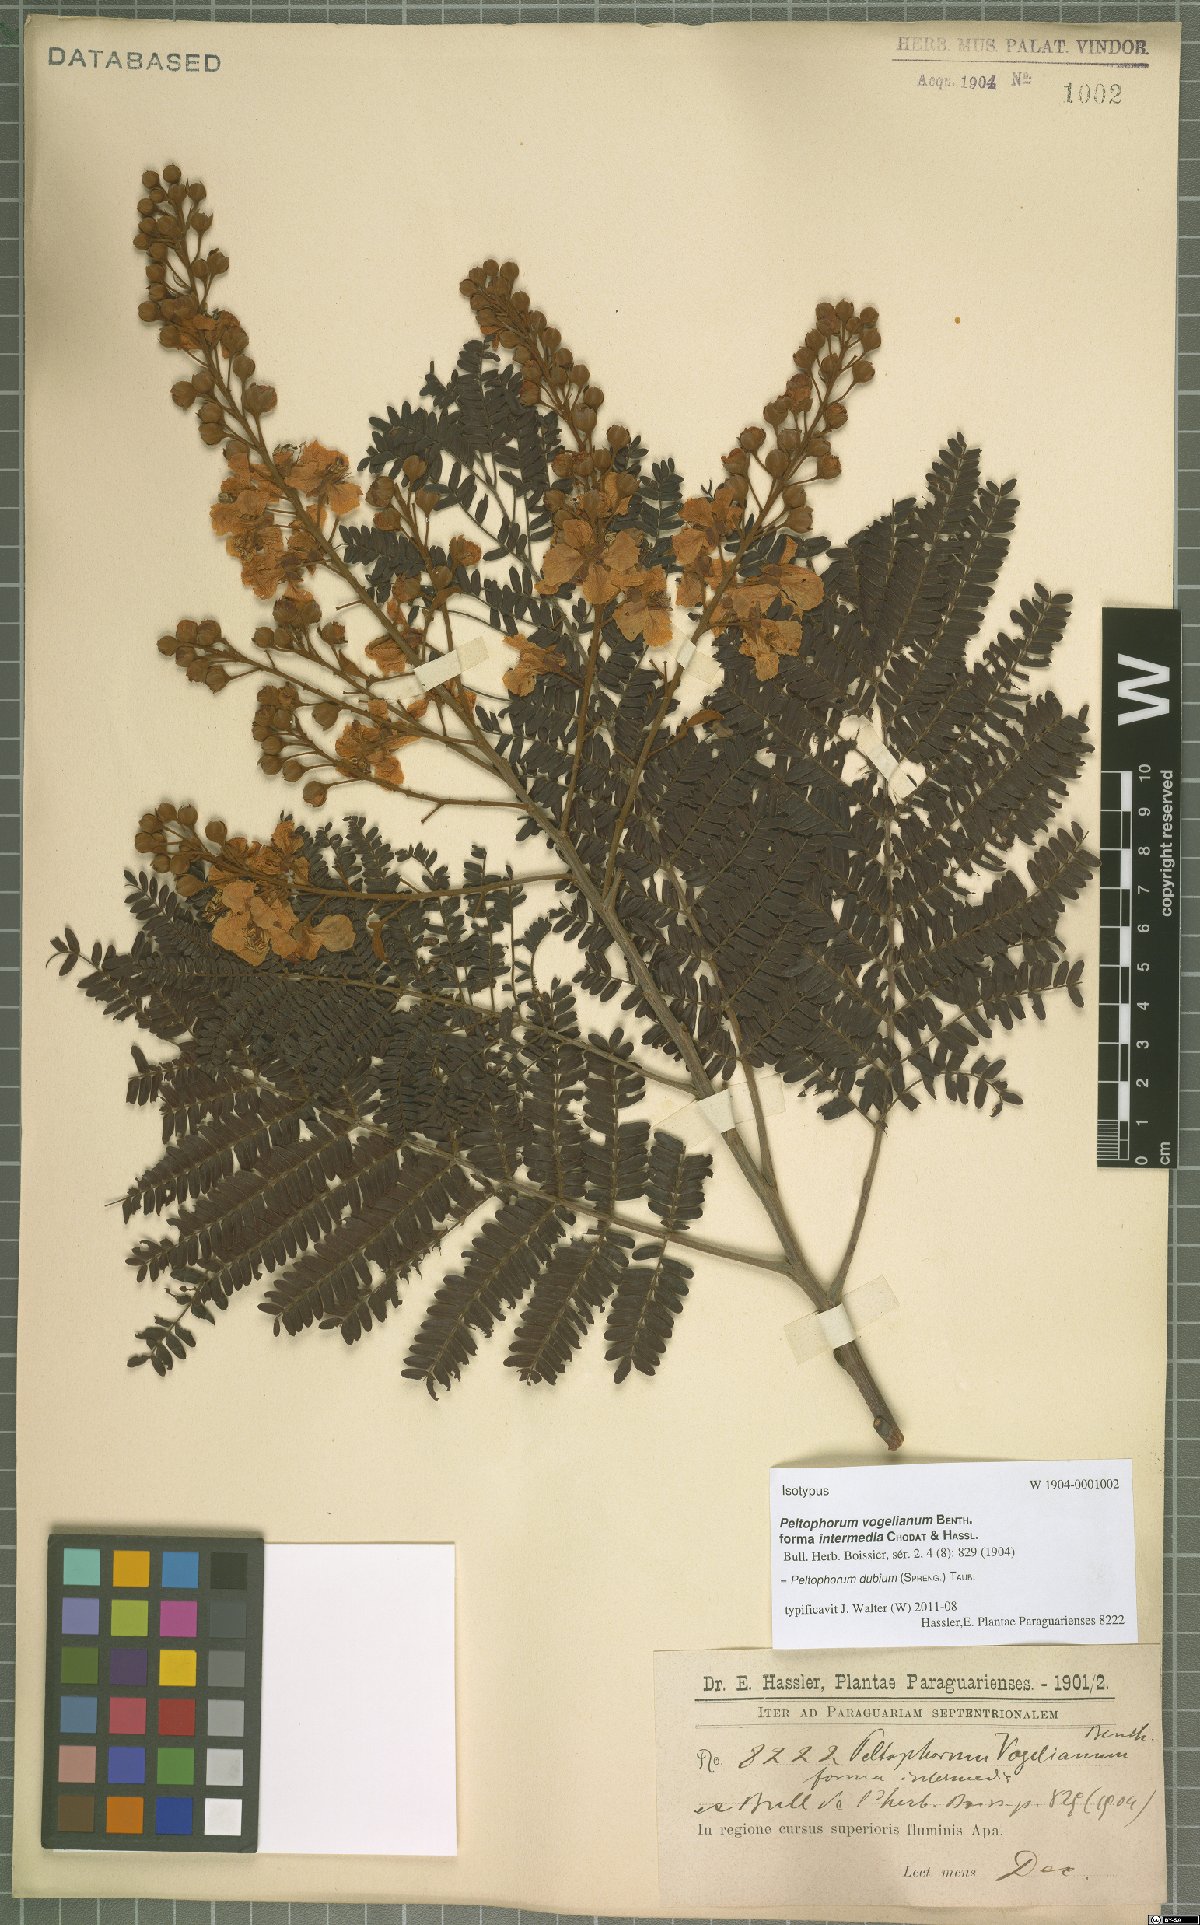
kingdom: Plantae
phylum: Tracheophyta
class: Magnoliopsida
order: Fabales
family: Fabaceae
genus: Peltophorum
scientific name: Peltophorum dubium
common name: Horsebush
